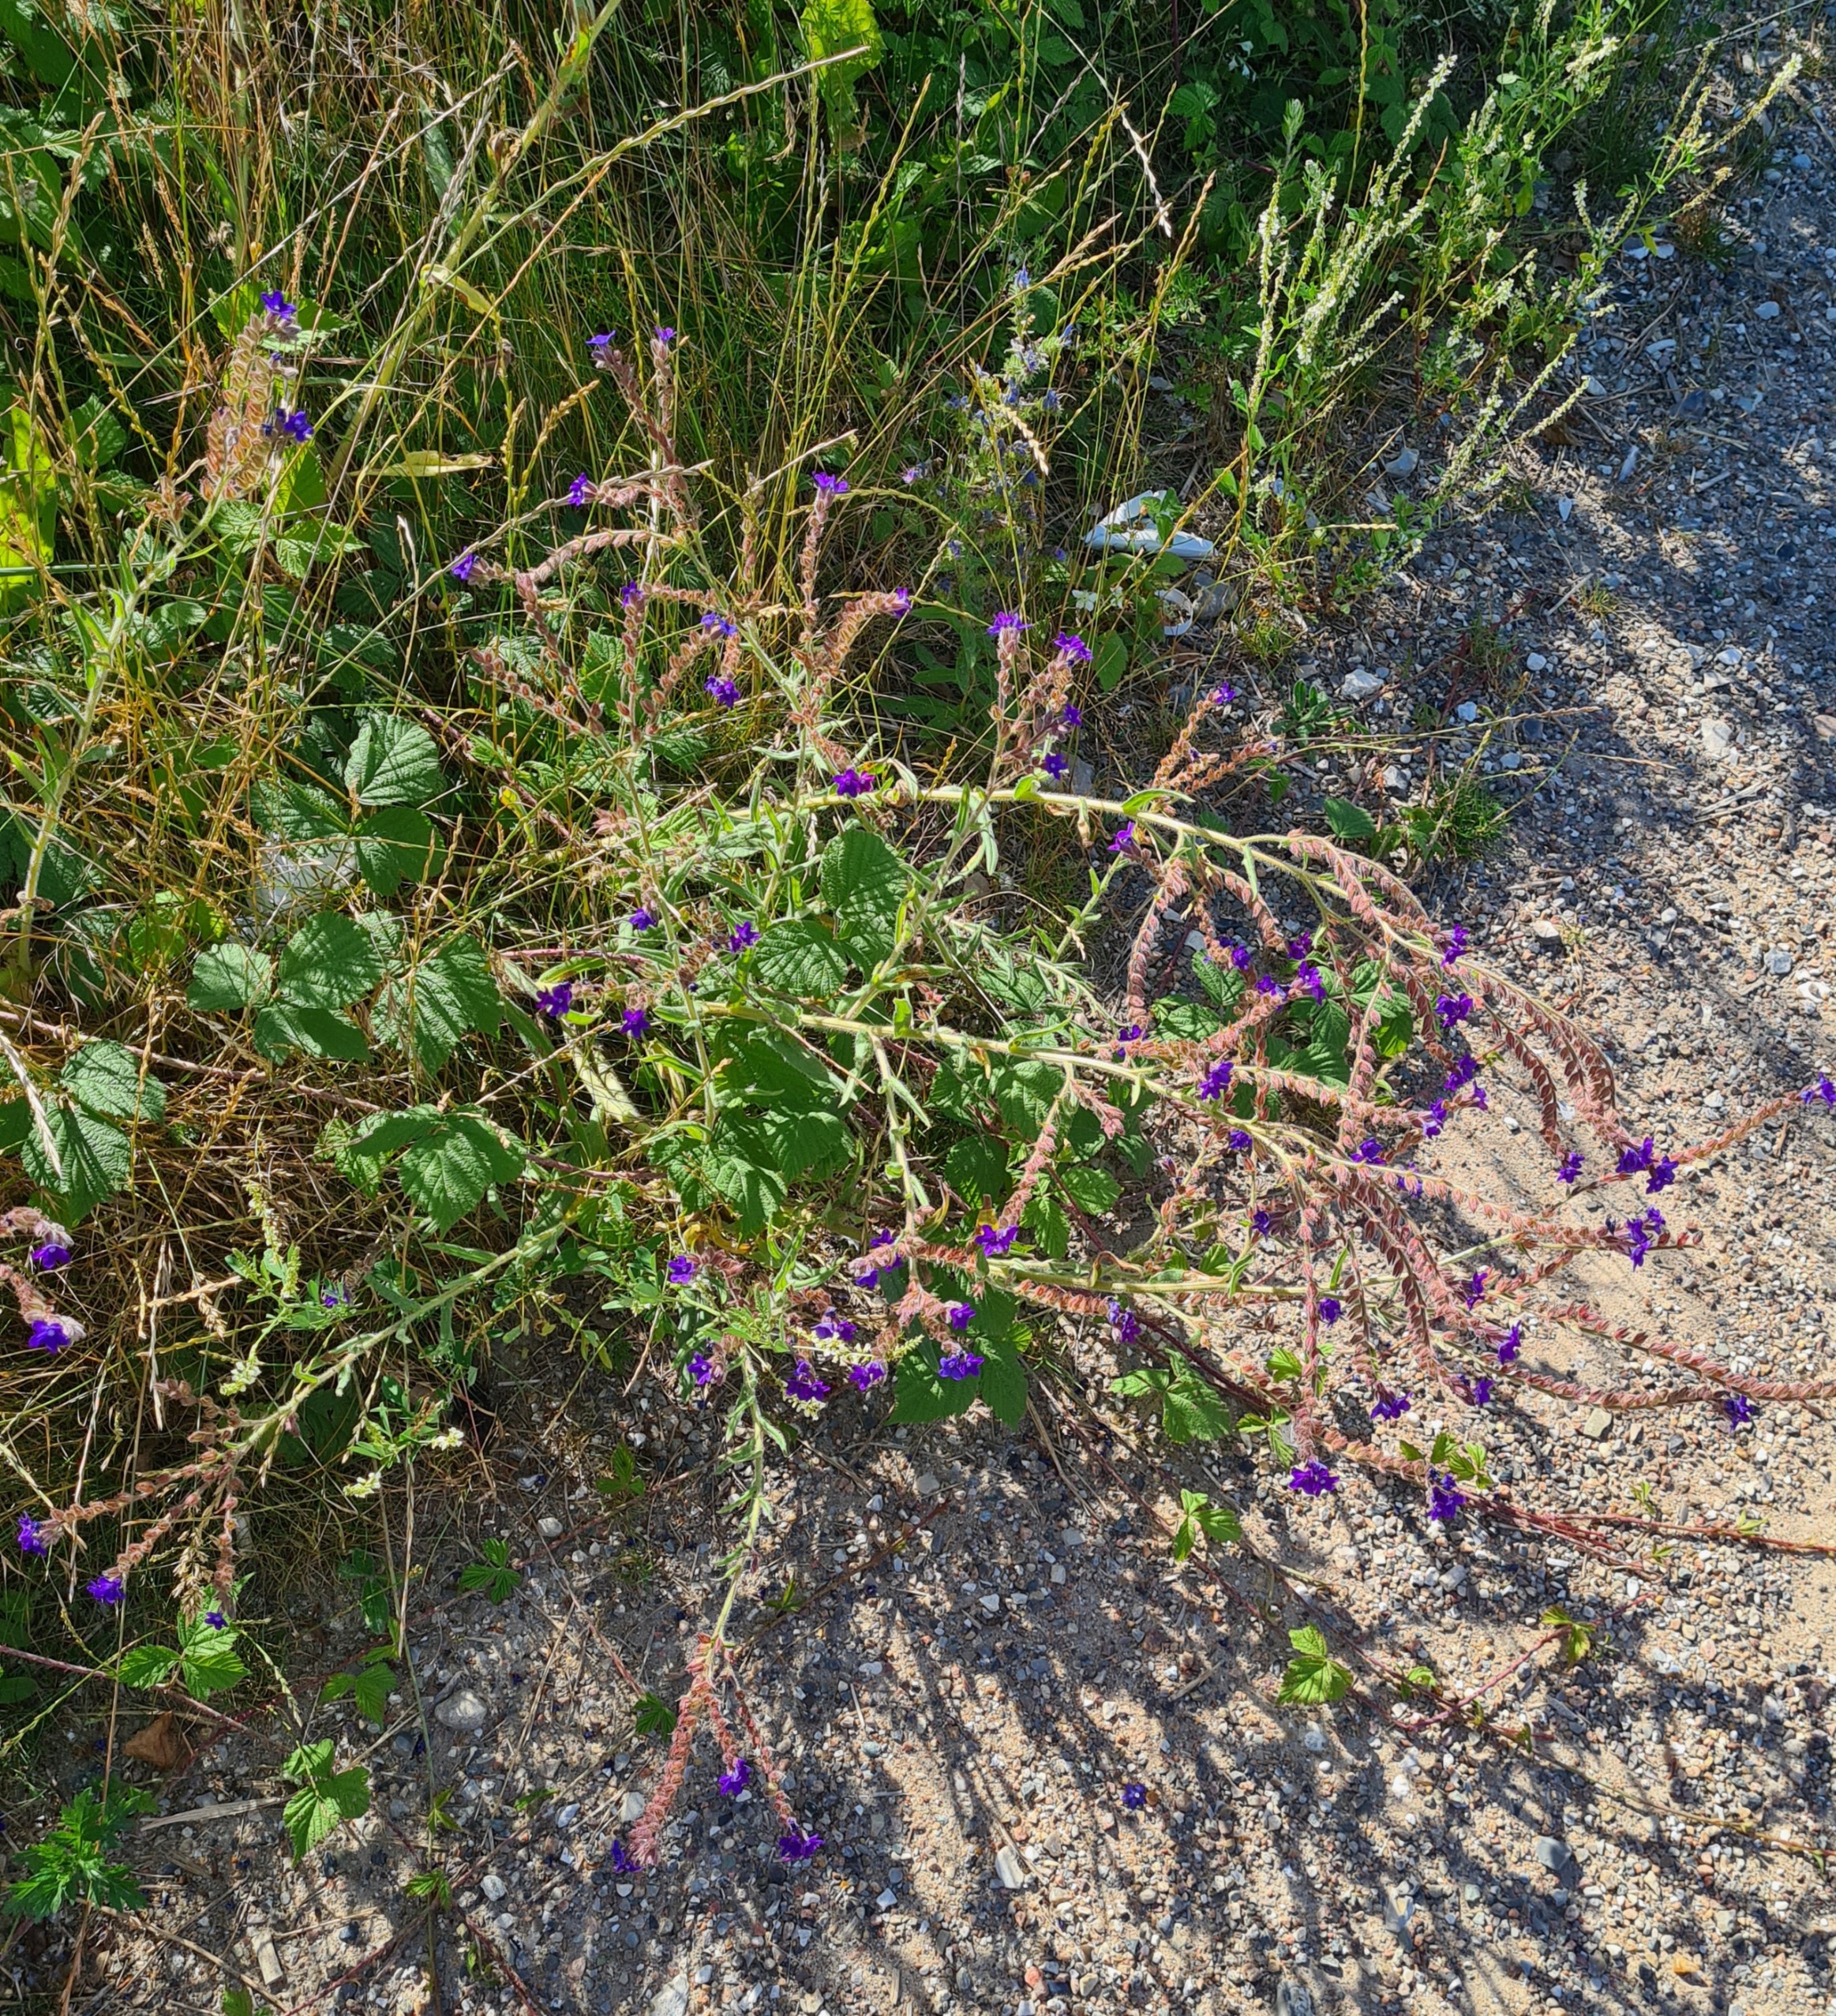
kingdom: Plantae
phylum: Tracheophyta
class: Magnoliopsida
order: Boraginales
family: Boraginaceae
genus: Anchusa
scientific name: Anchusa officinalis
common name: Læge-oksetunge
